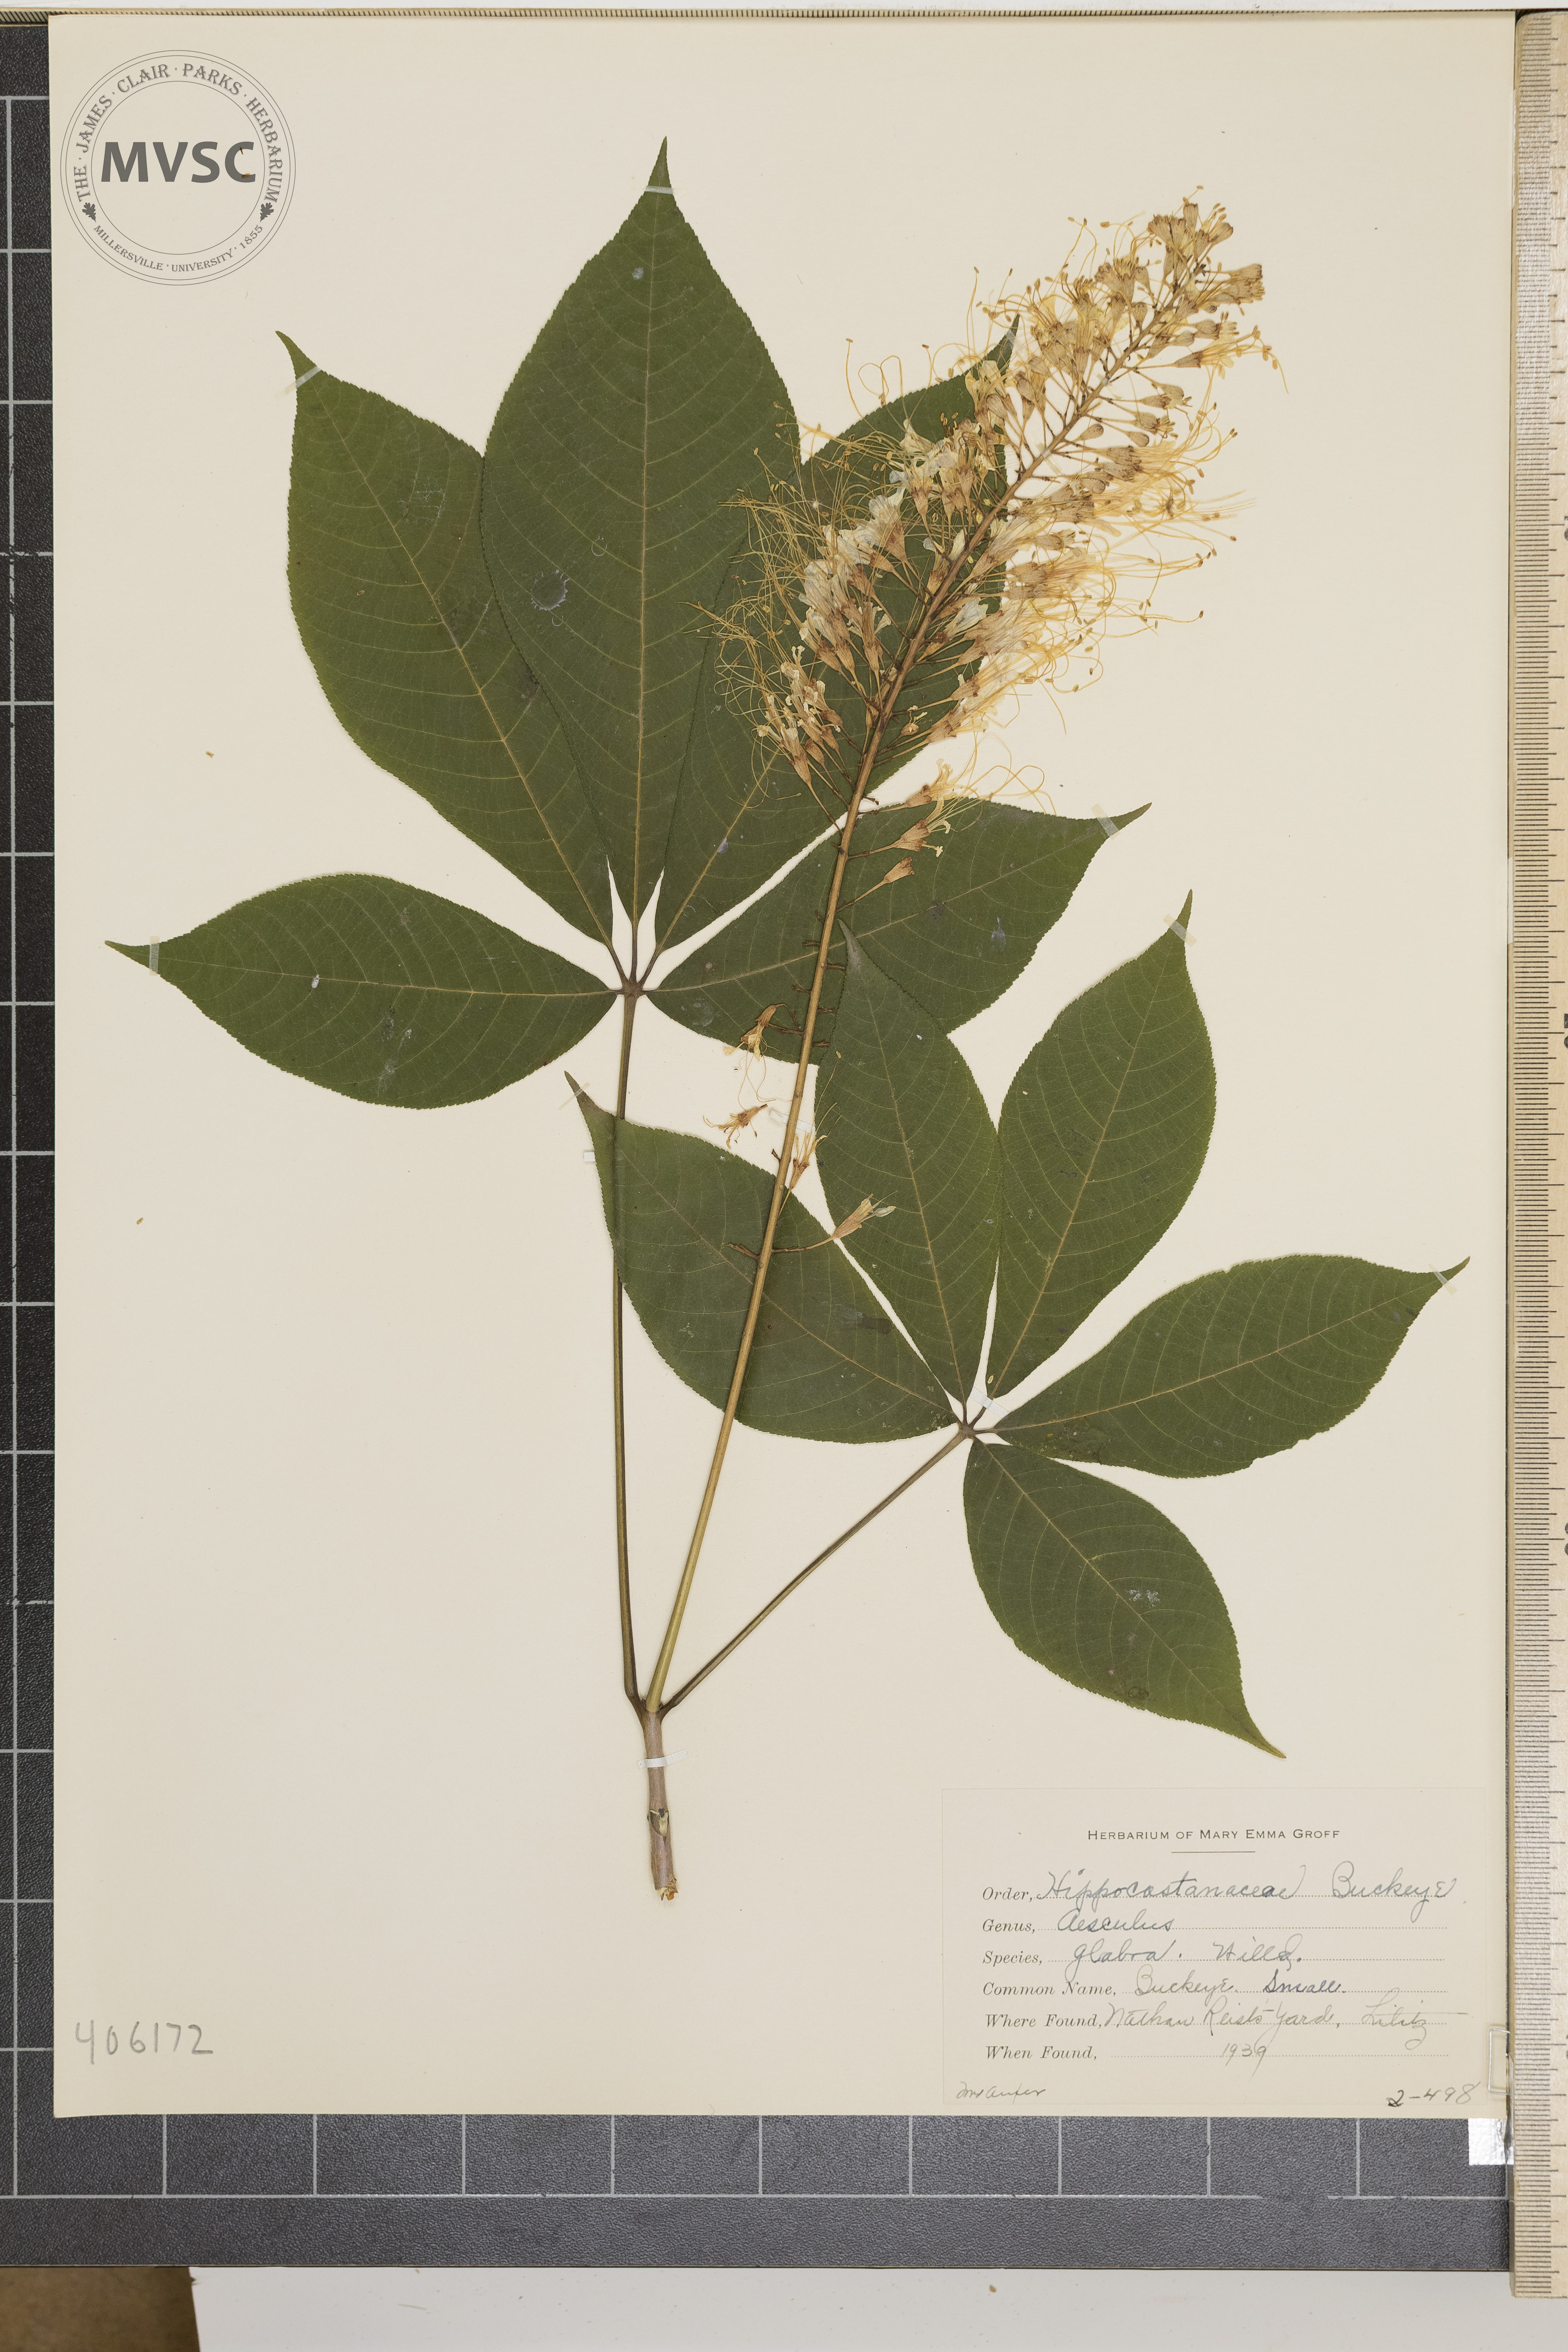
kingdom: Plantae
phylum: Tracheophyta
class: Magnoliopsida
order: Sapindales
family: Sapindaceae
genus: Aesculus
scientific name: Aesculus glabra
